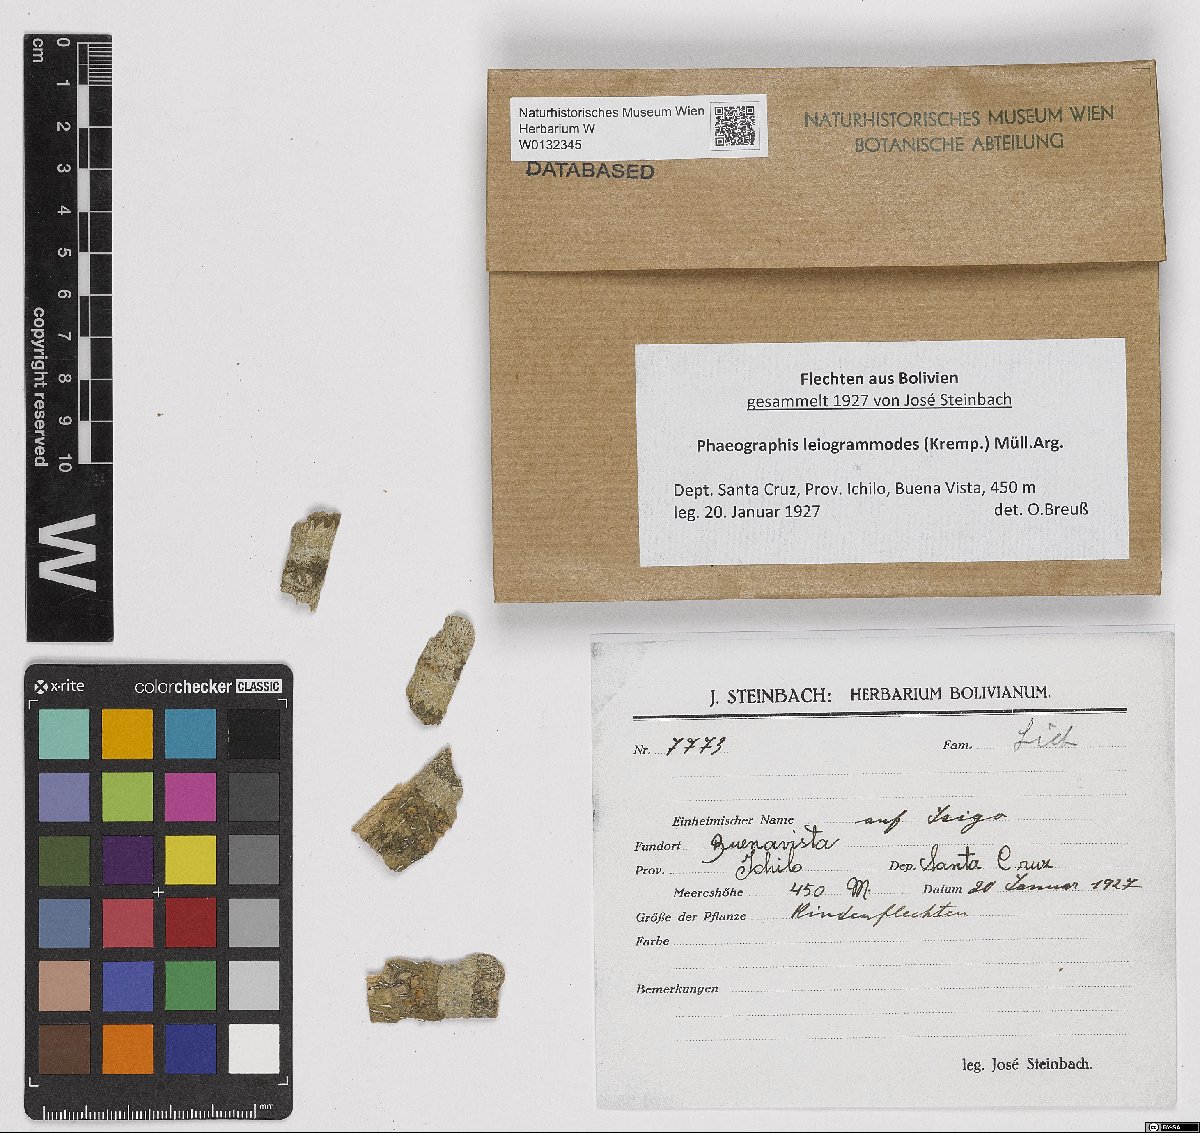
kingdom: Fungi
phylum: Ascomycota
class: Lecanoromycetes
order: Ostropales
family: Graphidaceae
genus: Phaeographis
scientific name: Phaeographis leiogrammodes
